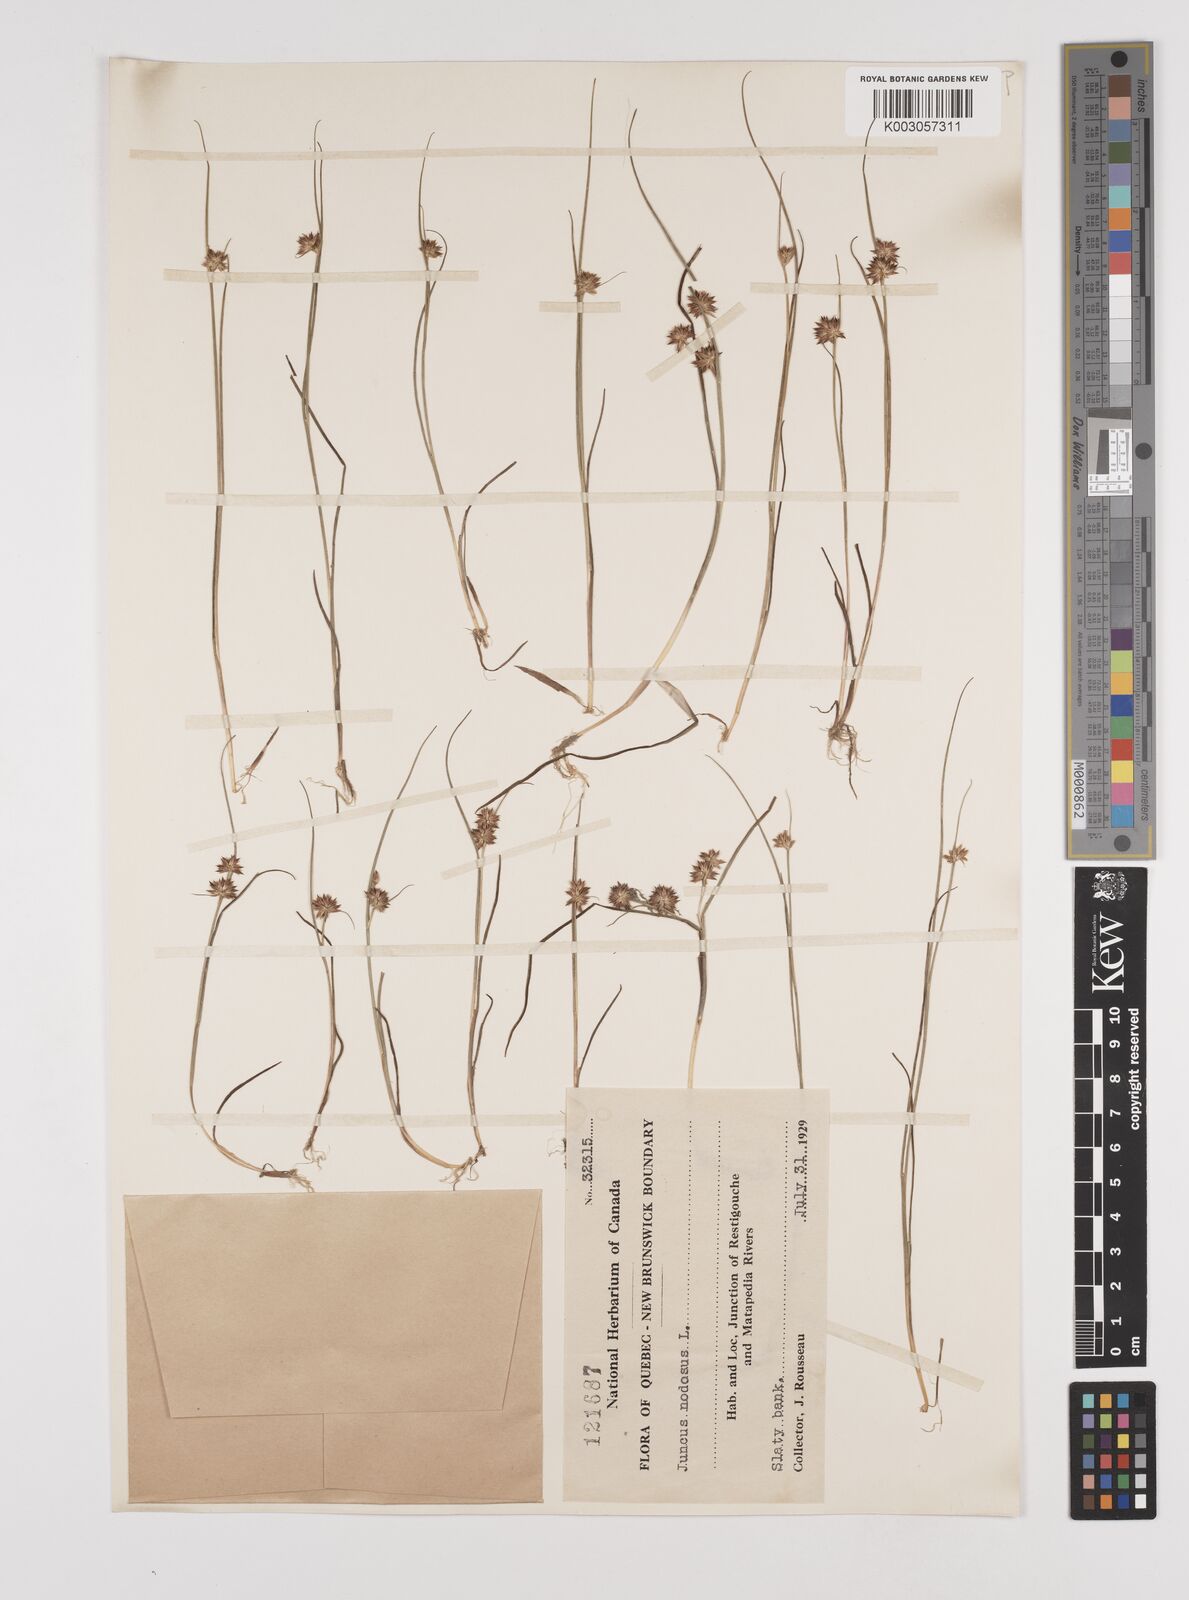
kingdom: Plantae
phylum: Tracheophyta
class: Liliopsida
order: Poales
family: Juncaceae
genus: Juncus
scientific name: Juncus nodosus
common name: Knotted rush
